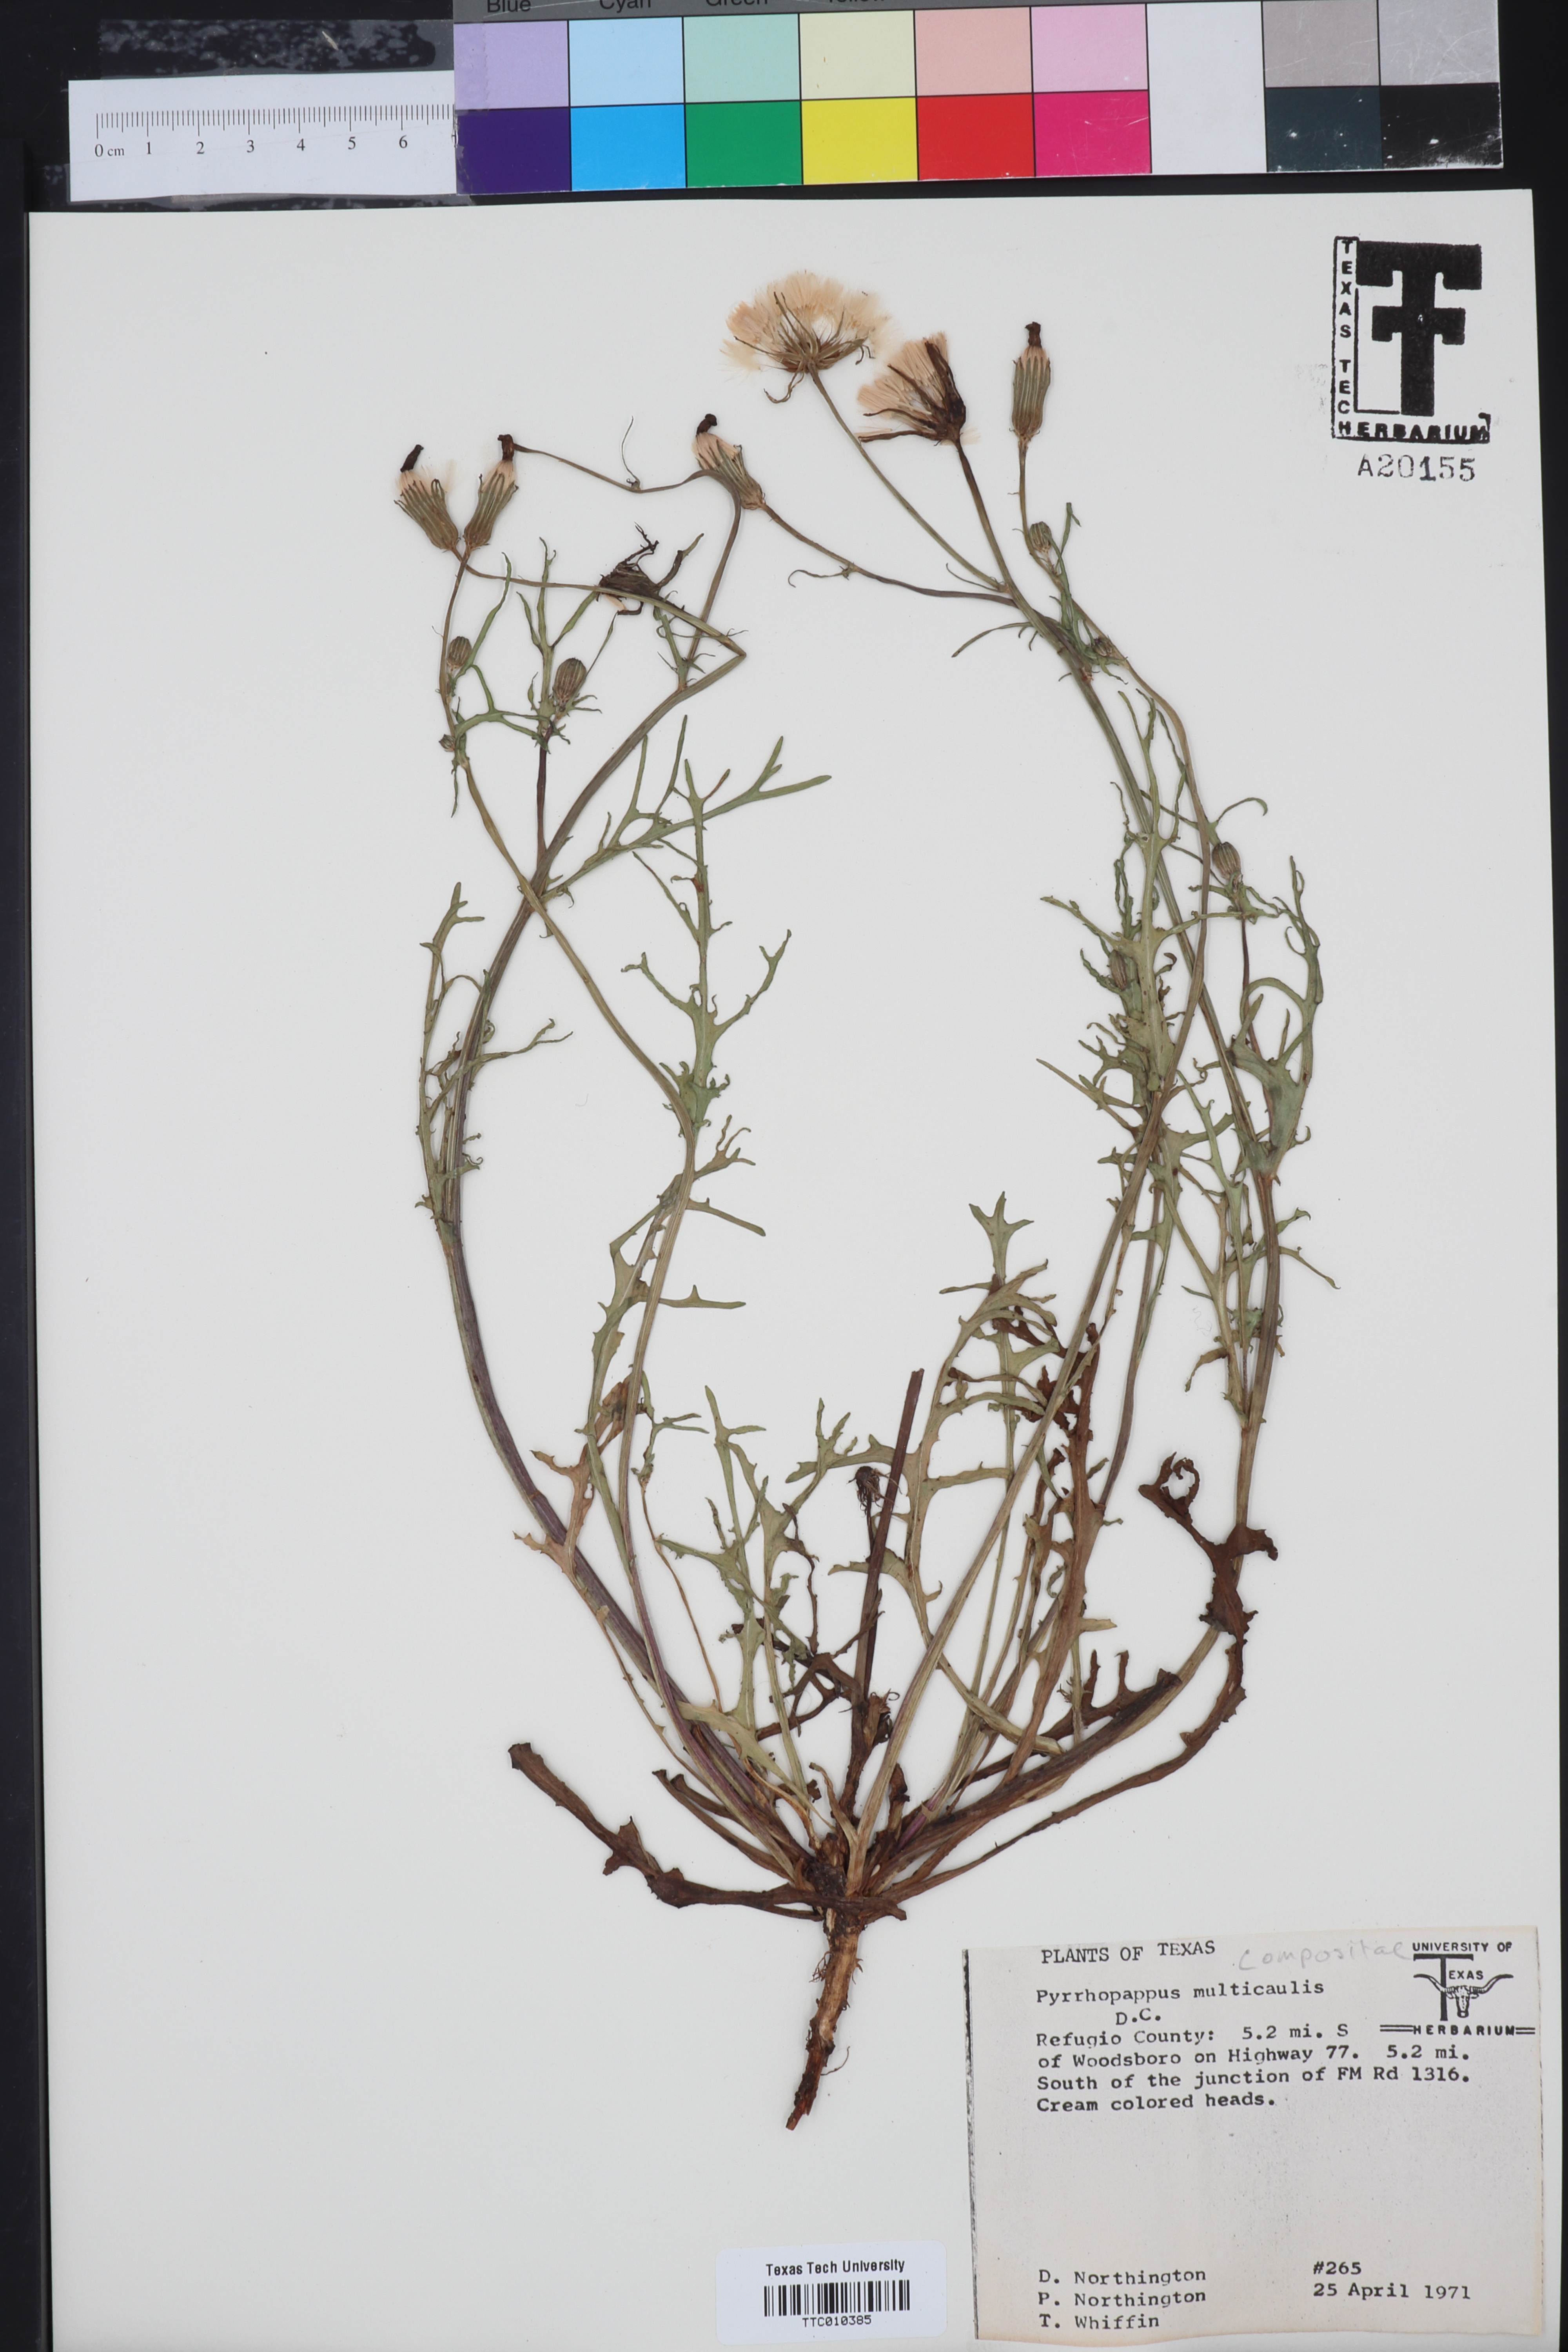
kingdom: Plantae
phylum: Tracheophyta
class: Magnoliopsida
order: Asterales
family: Asteraceae
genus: Pyrrhopappus
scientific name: Pyrrhopappus pauciflorus
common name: Texas false dandelion
